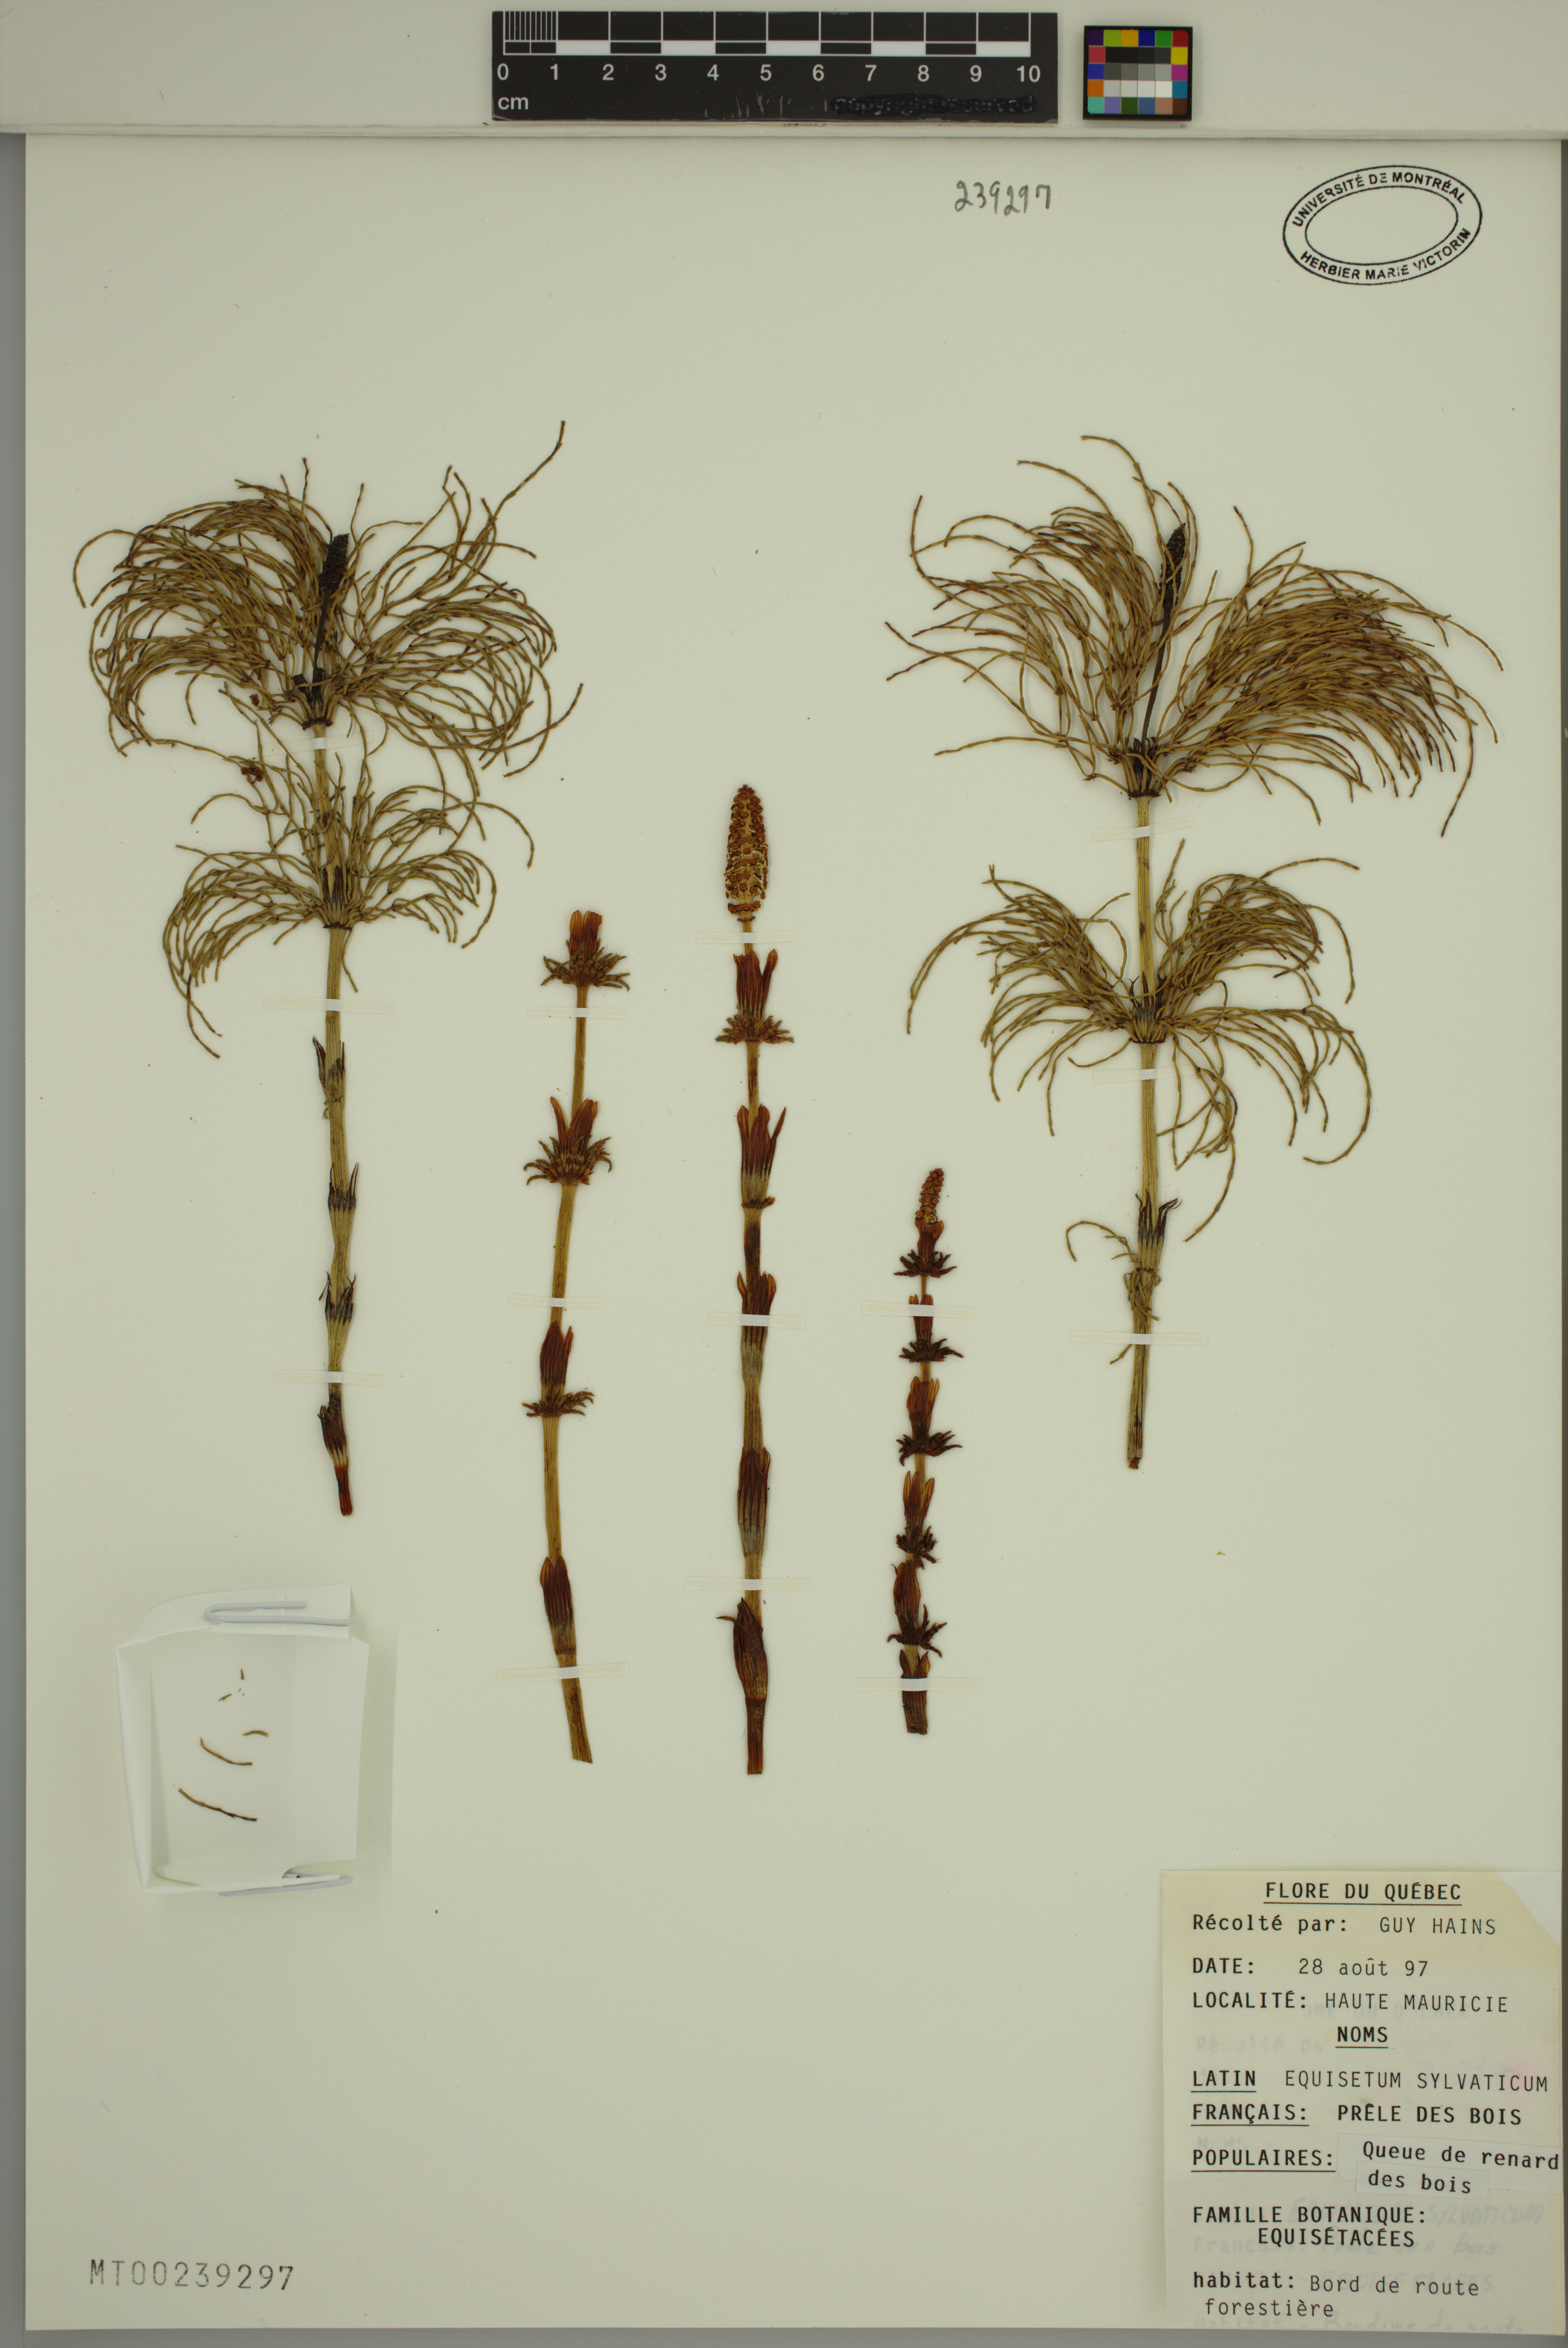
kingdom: Plantae
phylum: Tracheophyta
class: Polypodiopsida
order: Equisetales
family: Equisetaceae
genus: Equisetum
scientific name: Equisetum sylvaticum
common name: Wood horsetail
